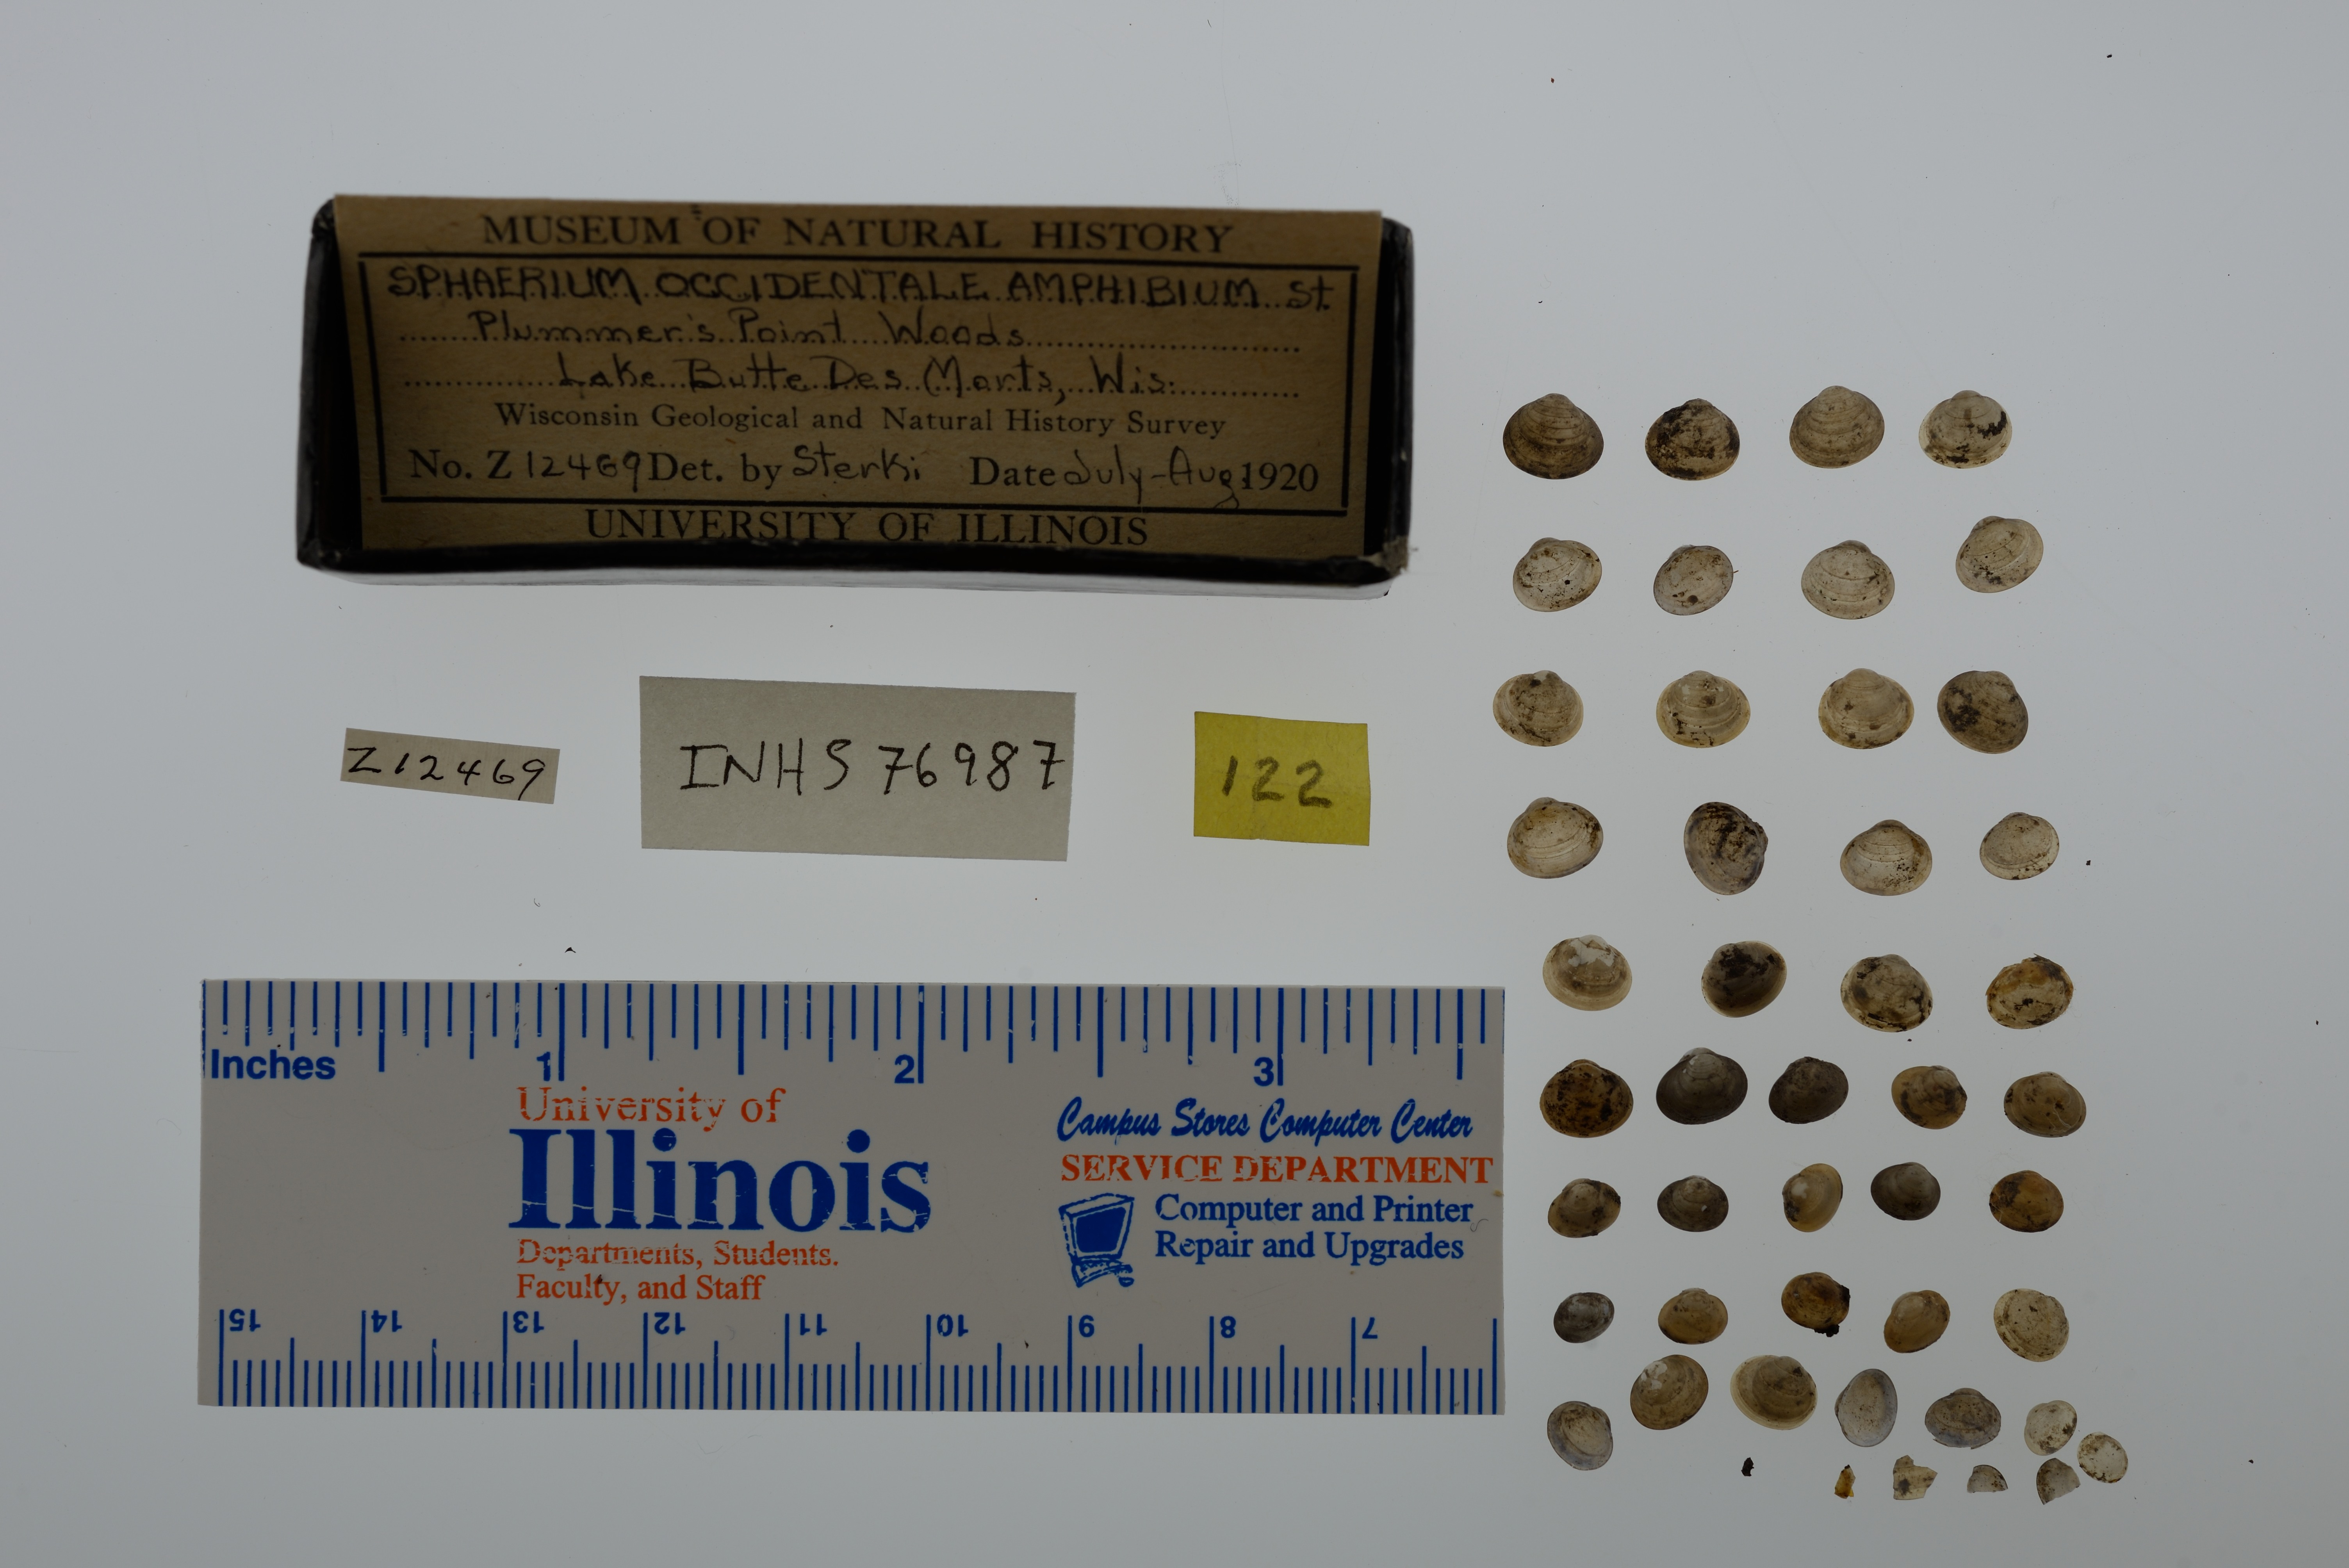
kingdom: Animalia
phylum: Mollusca
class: Bivalvia
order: Sphaeriida
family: Sphaeriidae
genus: Sphaerium
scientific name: Sphaerium occidentale
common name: Herrington fingernailclam
